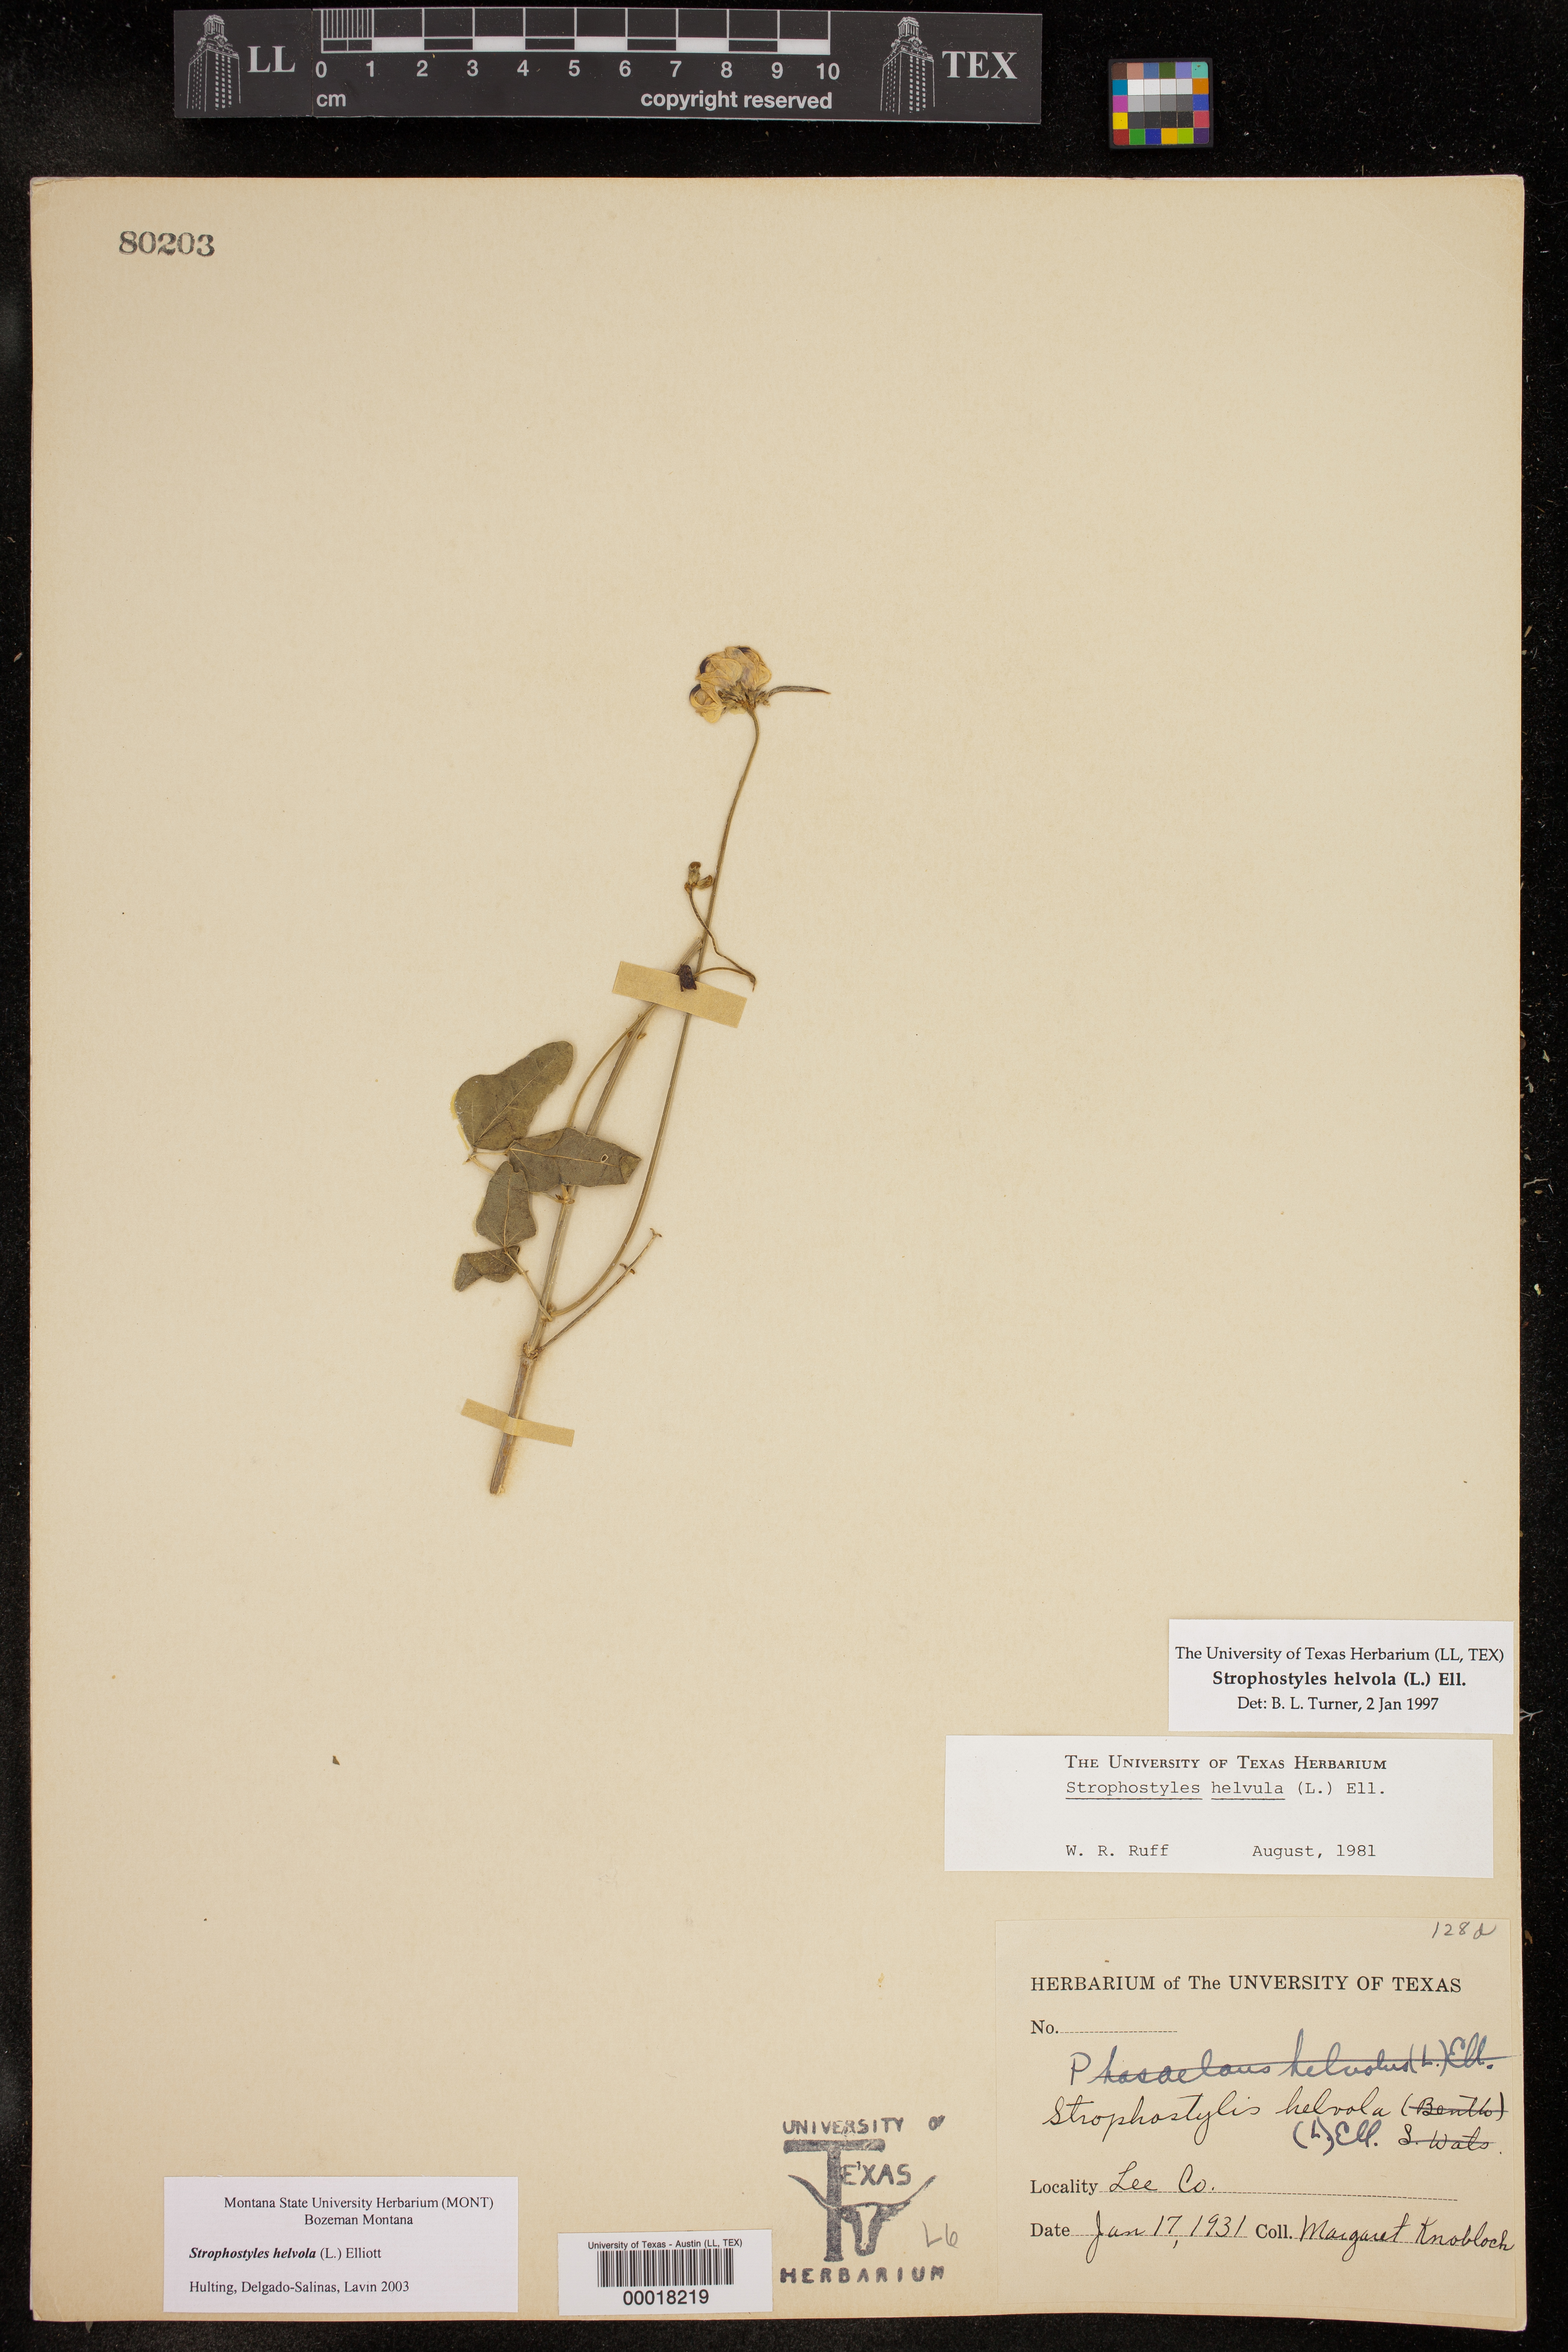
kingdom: Plantae
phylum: Tracheophyta
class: Magnoliopsida
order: Fabales
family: Fabaceae
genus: Strophostyles
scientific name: Strophostyles helvola
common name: Trailing wild bean
